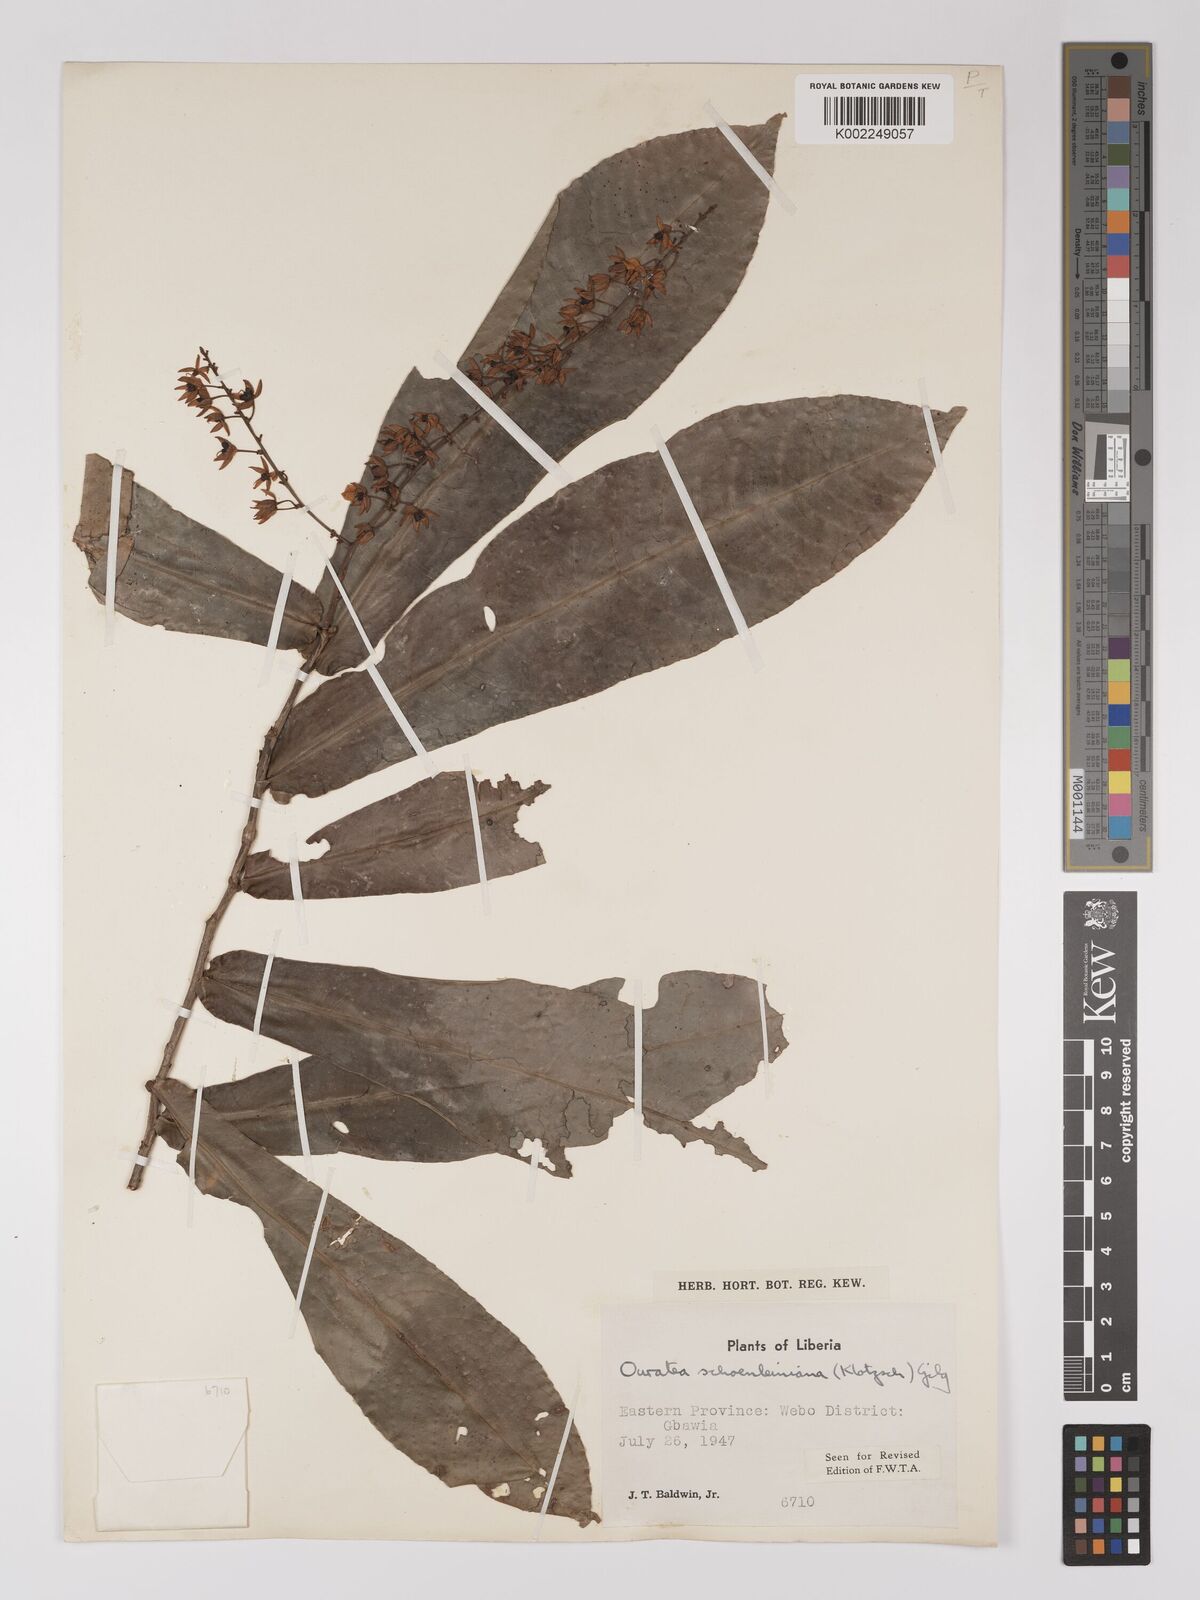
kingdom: Plantae
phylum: Tracheophyta
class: Magnoliopsida
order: Malpighiales
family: Ochnaceae
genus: Campylospermum
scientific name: Campylospermum schoenleinianum
